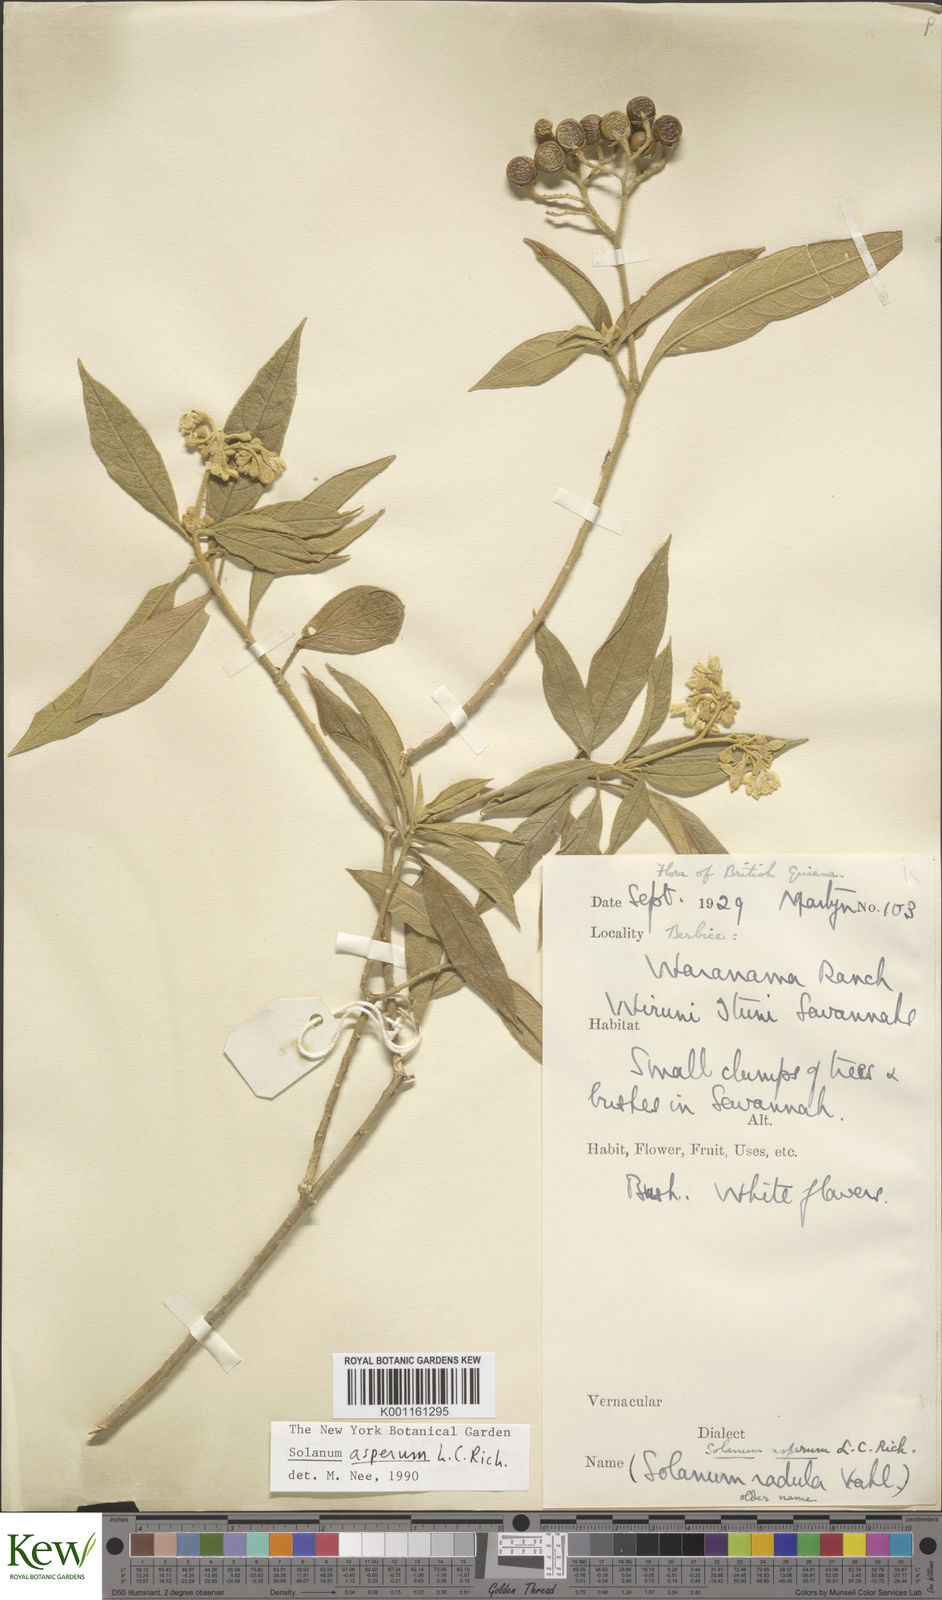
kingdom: Plantae
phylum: Tracheophyta
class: Magnoliopsida
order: Solanales
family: Solanaceae
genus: Solanum
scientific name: Solanum asperum
